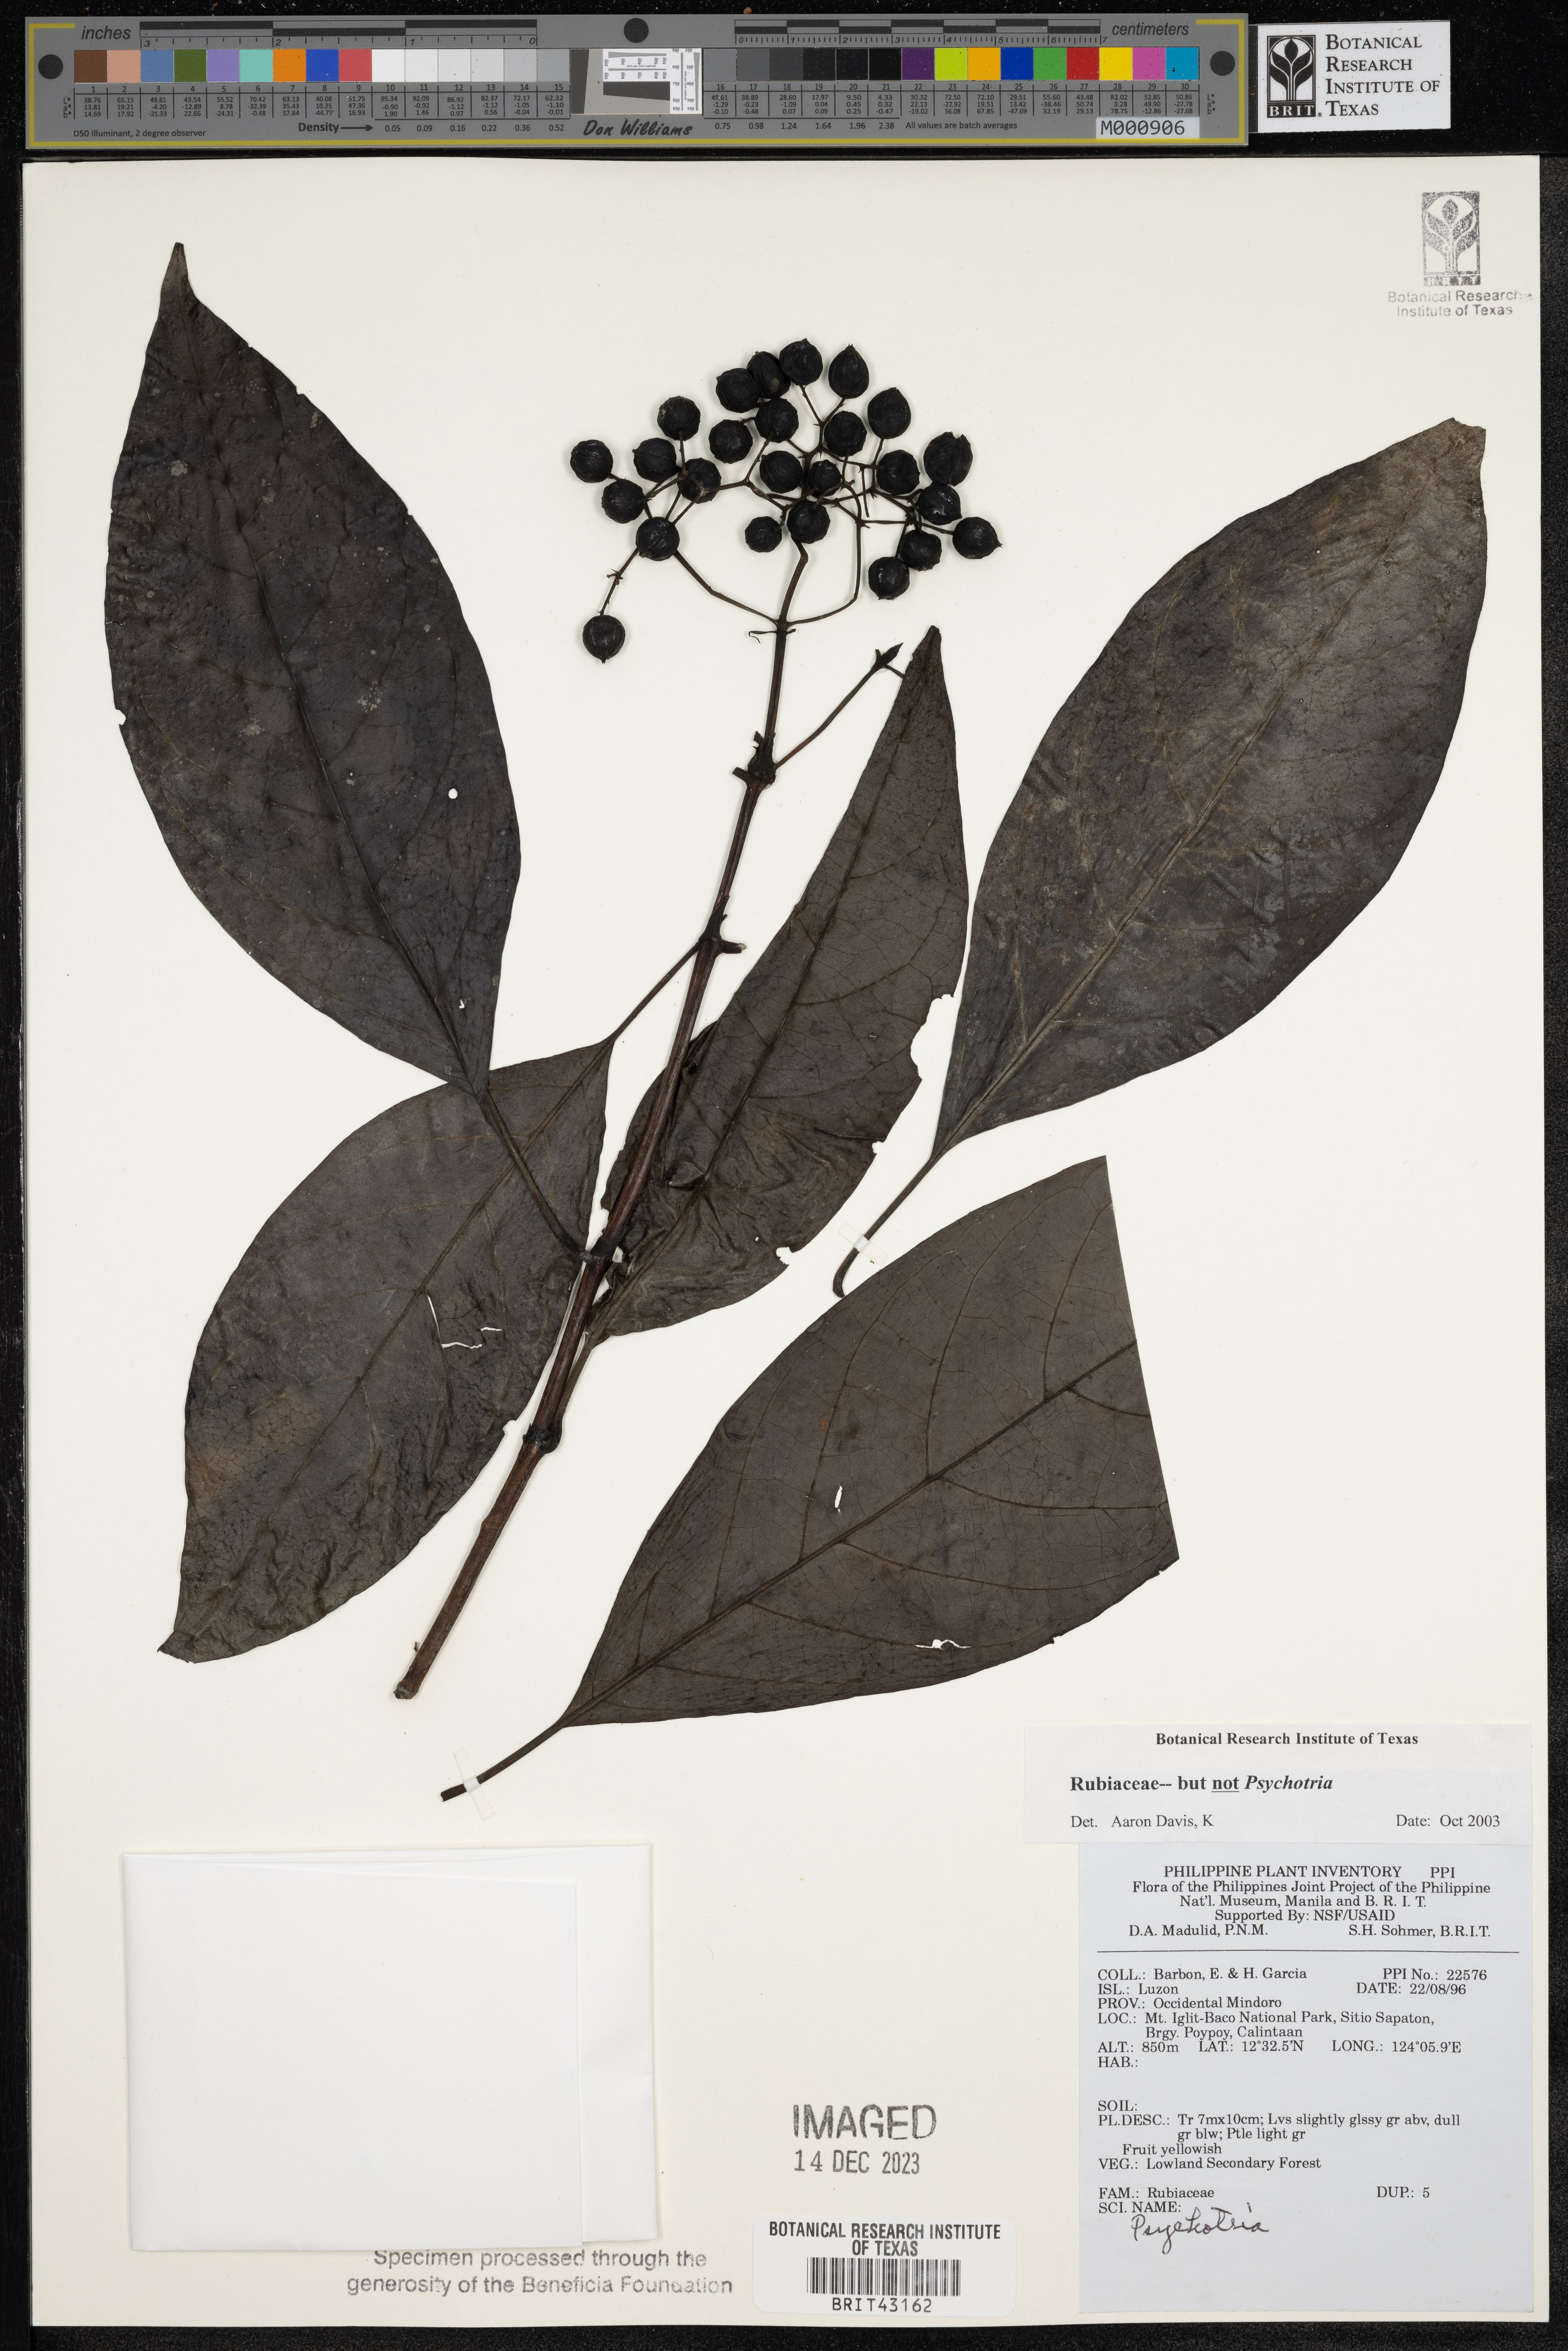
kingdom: Plantae
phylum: Tracheophyta
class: Magnoliopsida
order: Gentianales
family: Rubiaceae
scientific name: Rubiaceae
